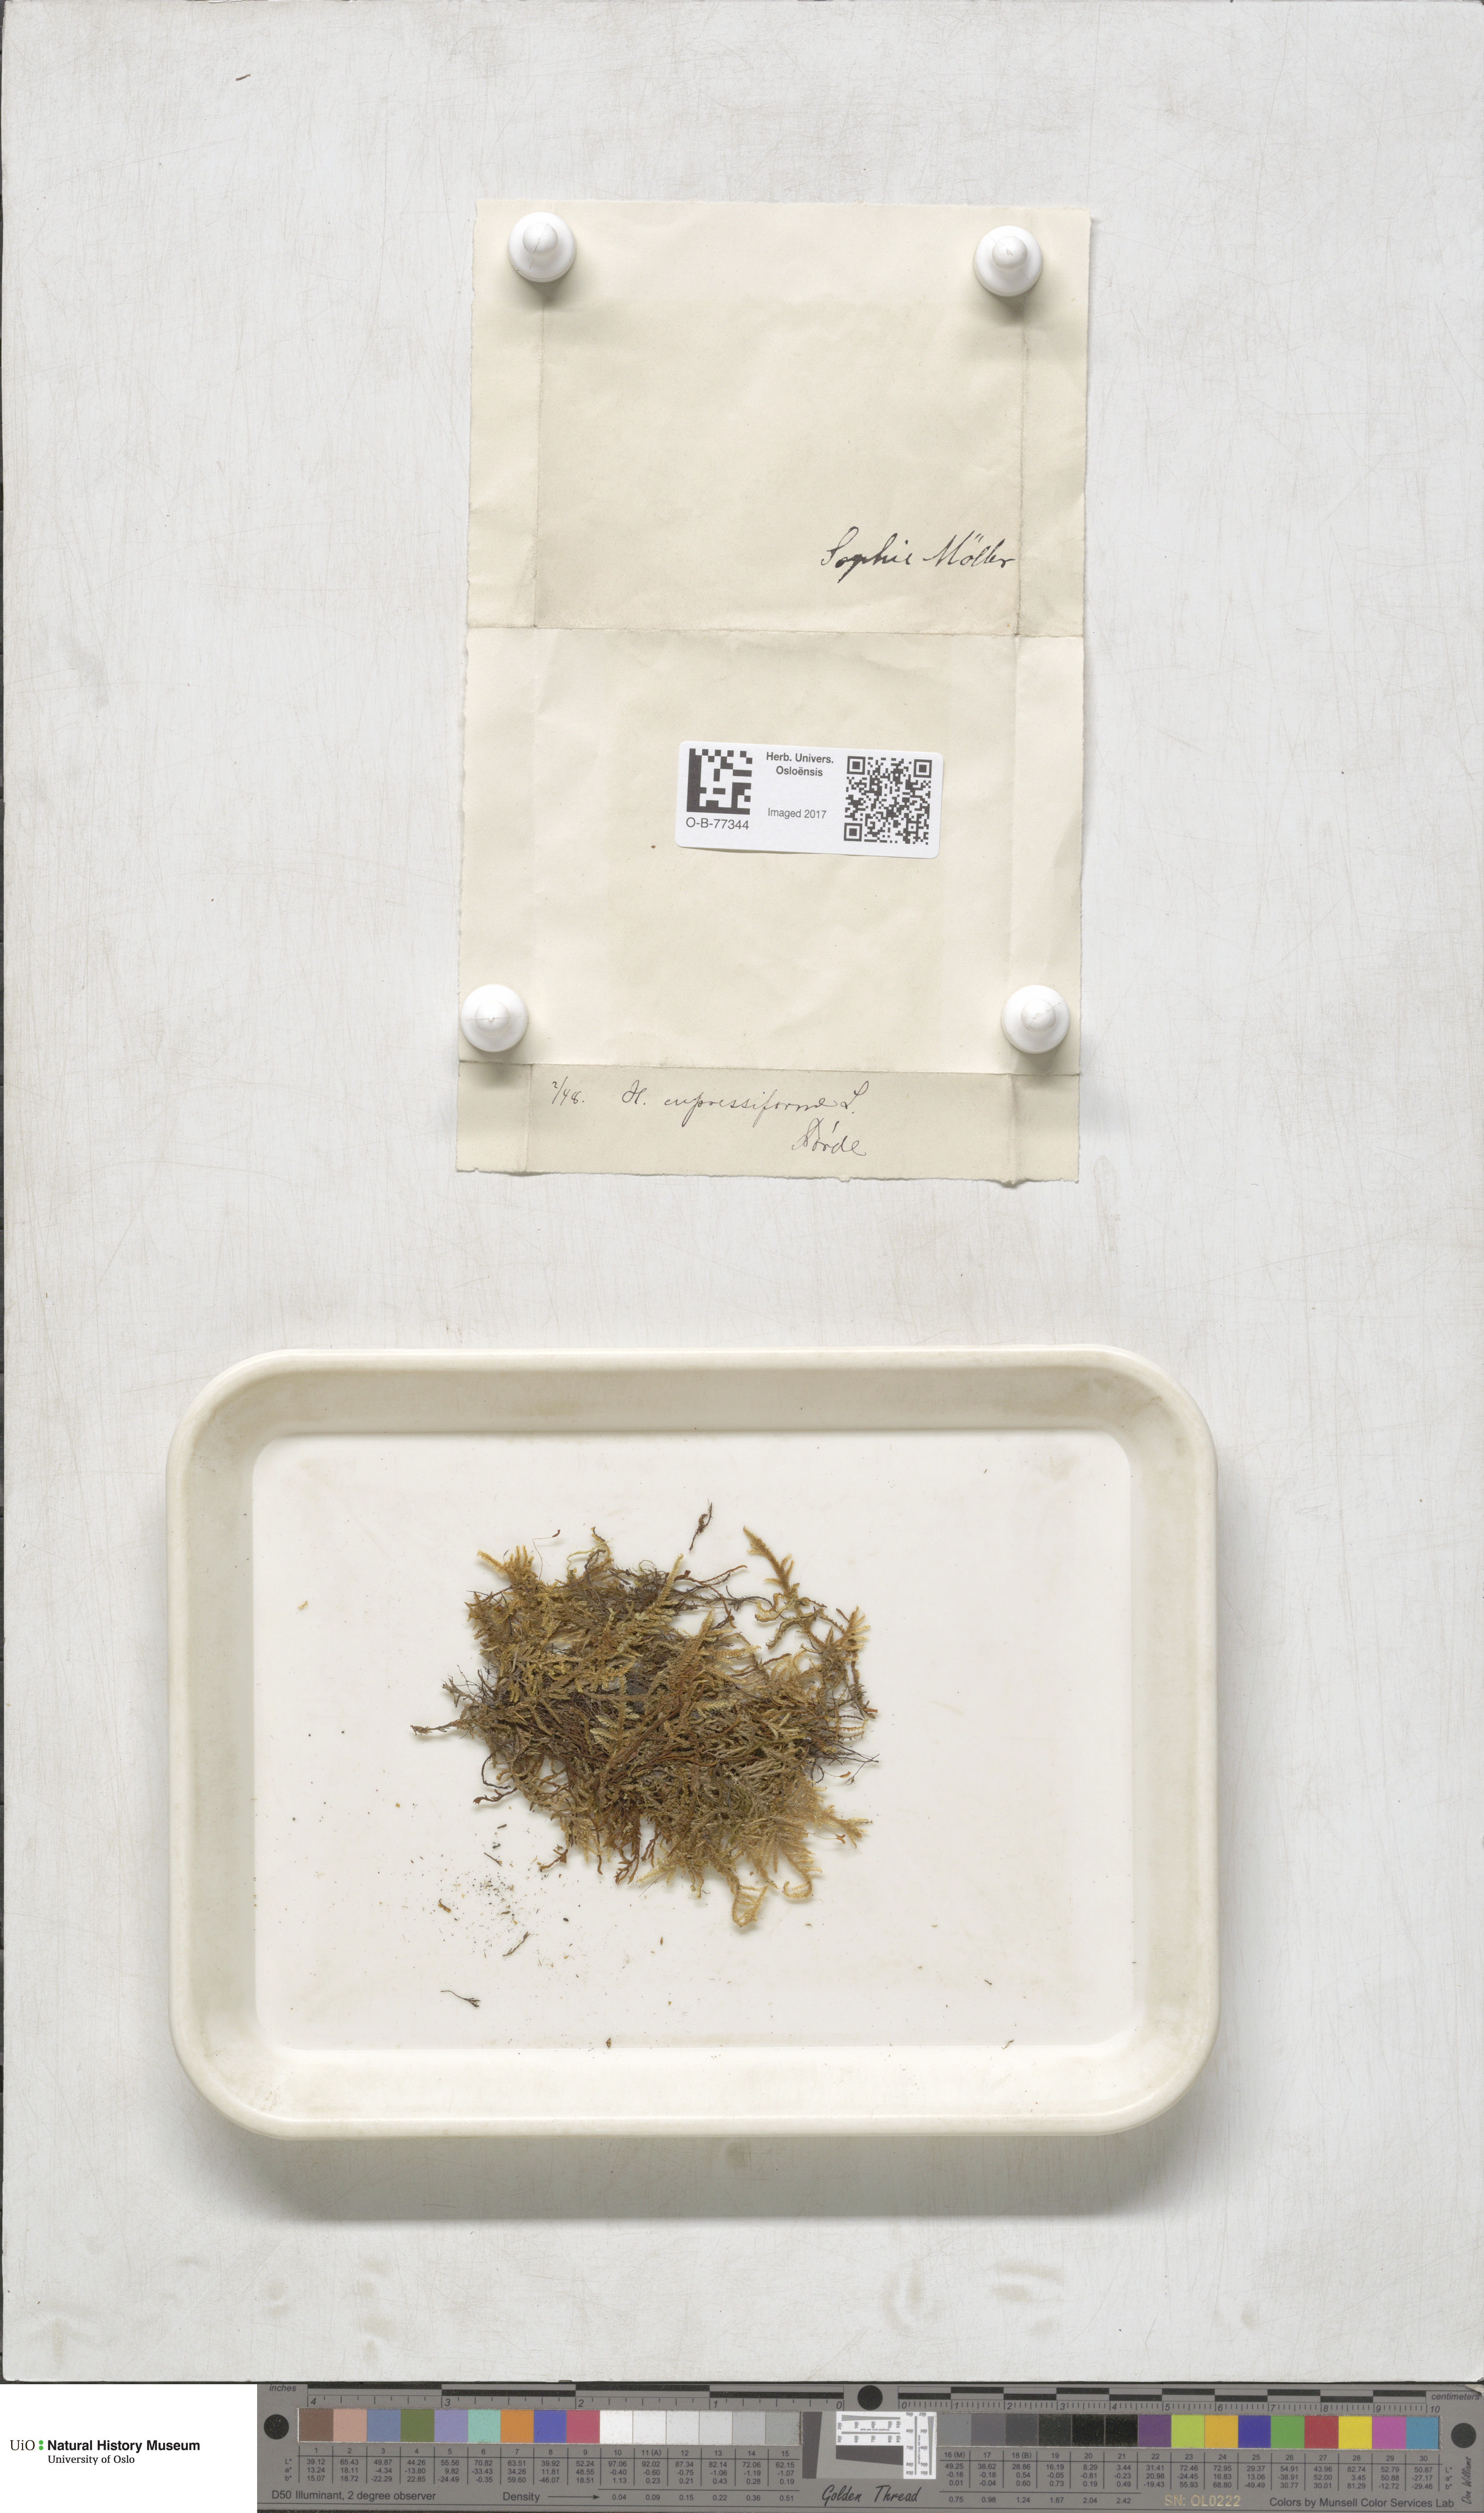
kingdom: Plantae
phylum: Bryophyta
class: Bryopsida
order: Hypnales
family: Hypnaceae
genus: Hypnum
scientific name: Hypnum cupressiforme
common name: Cypress-leaved plait-moss
